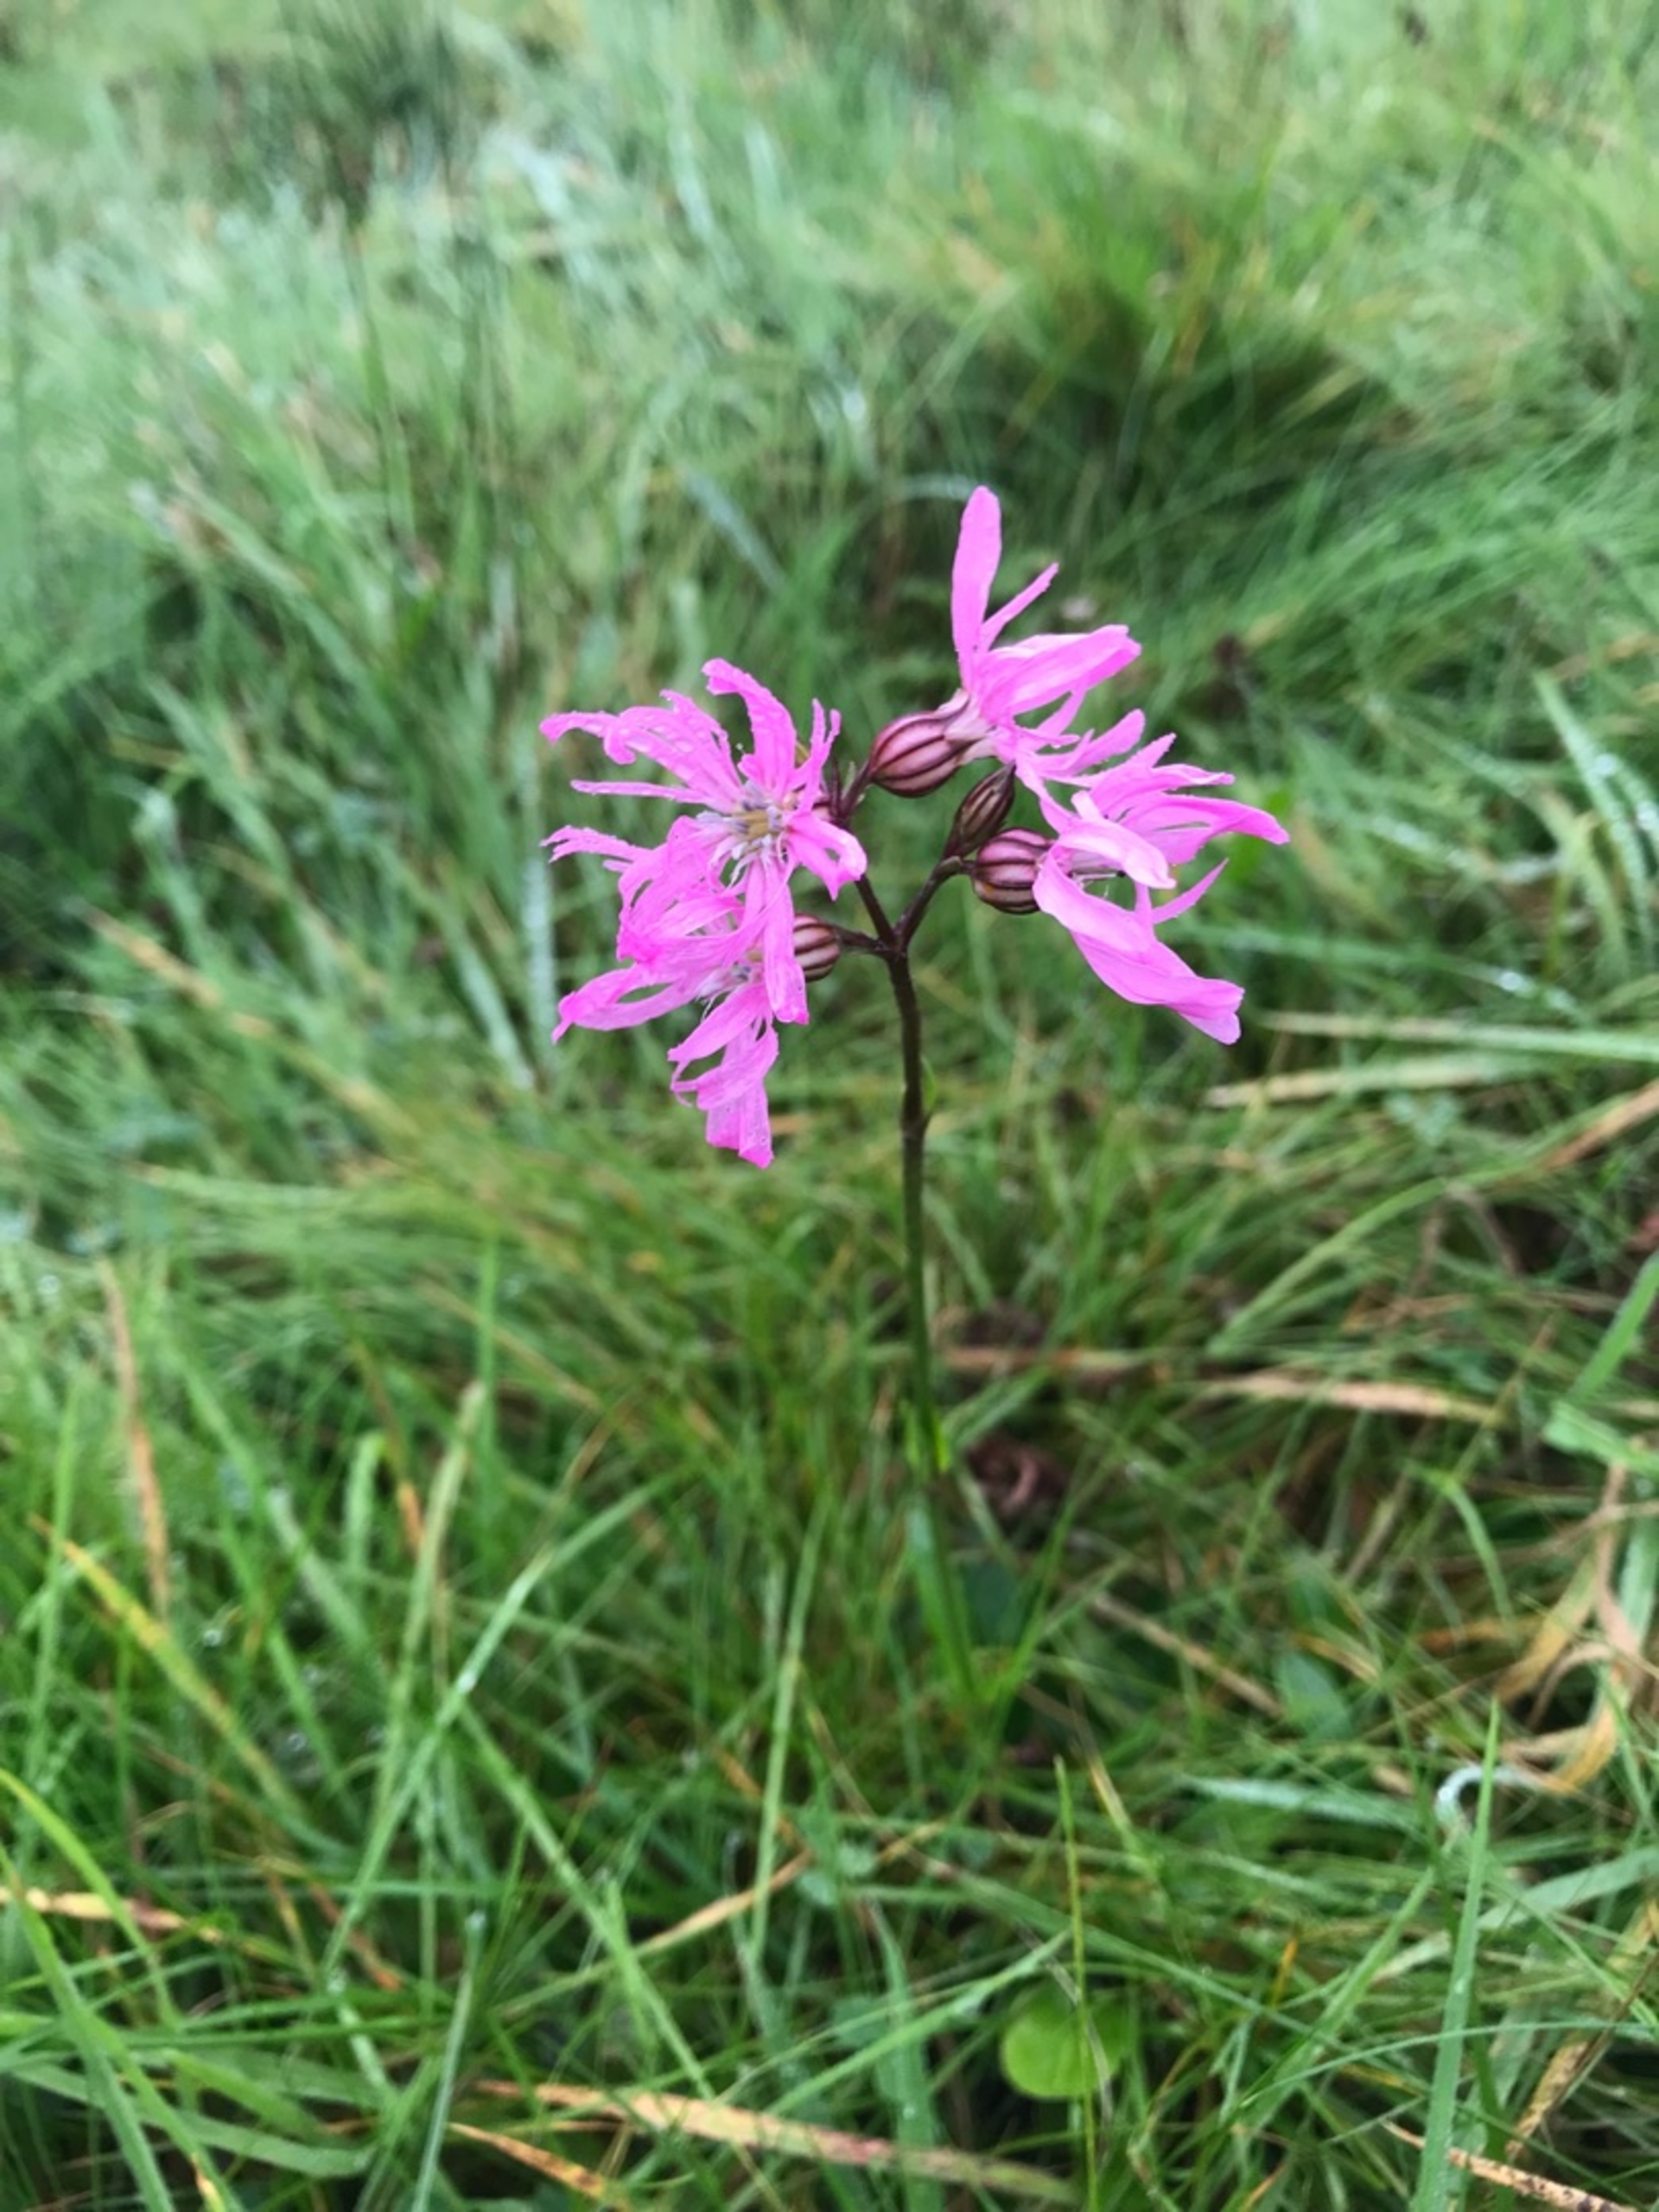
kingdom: Plantae
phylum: Tracheophyta
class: Magnoliopsida
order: Caryophyllales
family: Caryophyllaceae
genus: Silene
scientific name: Silene flos-cuculi
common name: Trævlekrone
